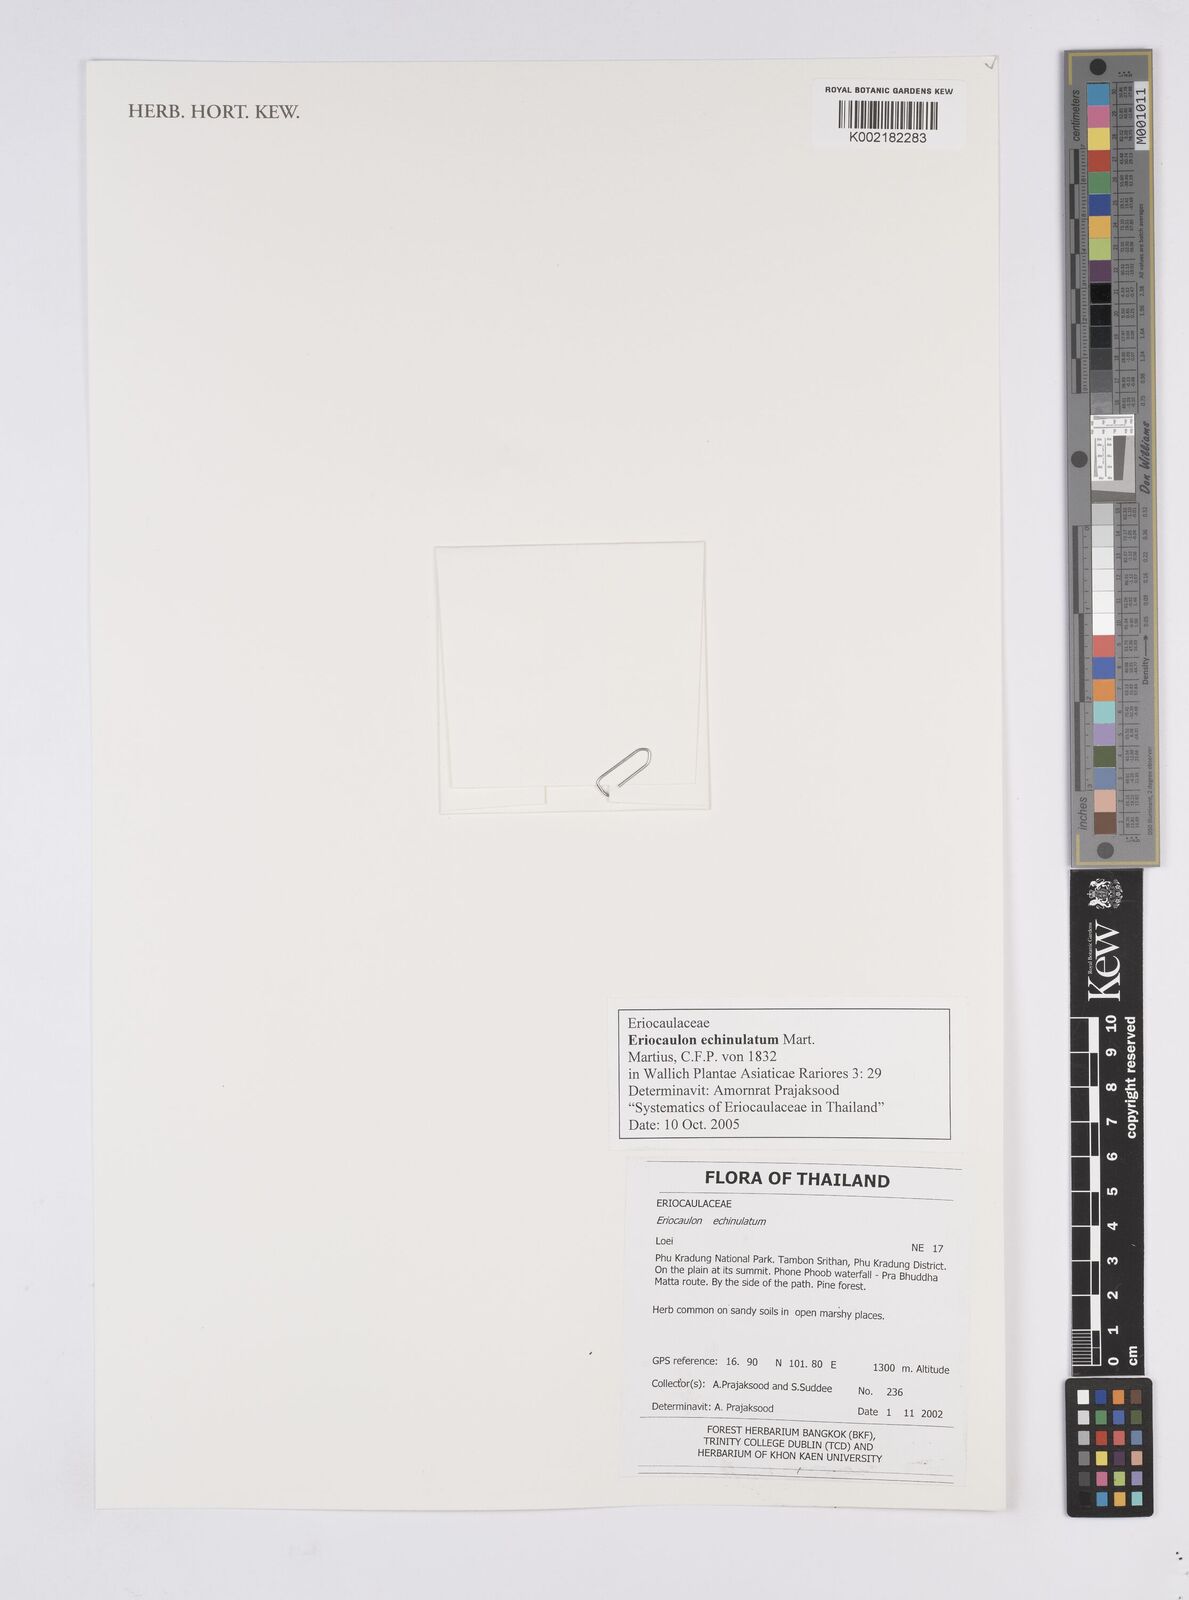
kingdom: Plantae
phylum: Tracheophyta
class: Liliopsida
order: Poales
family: Eriocaulaceae
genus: Eriocaulon
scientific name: Eriocaulon echinulatum
